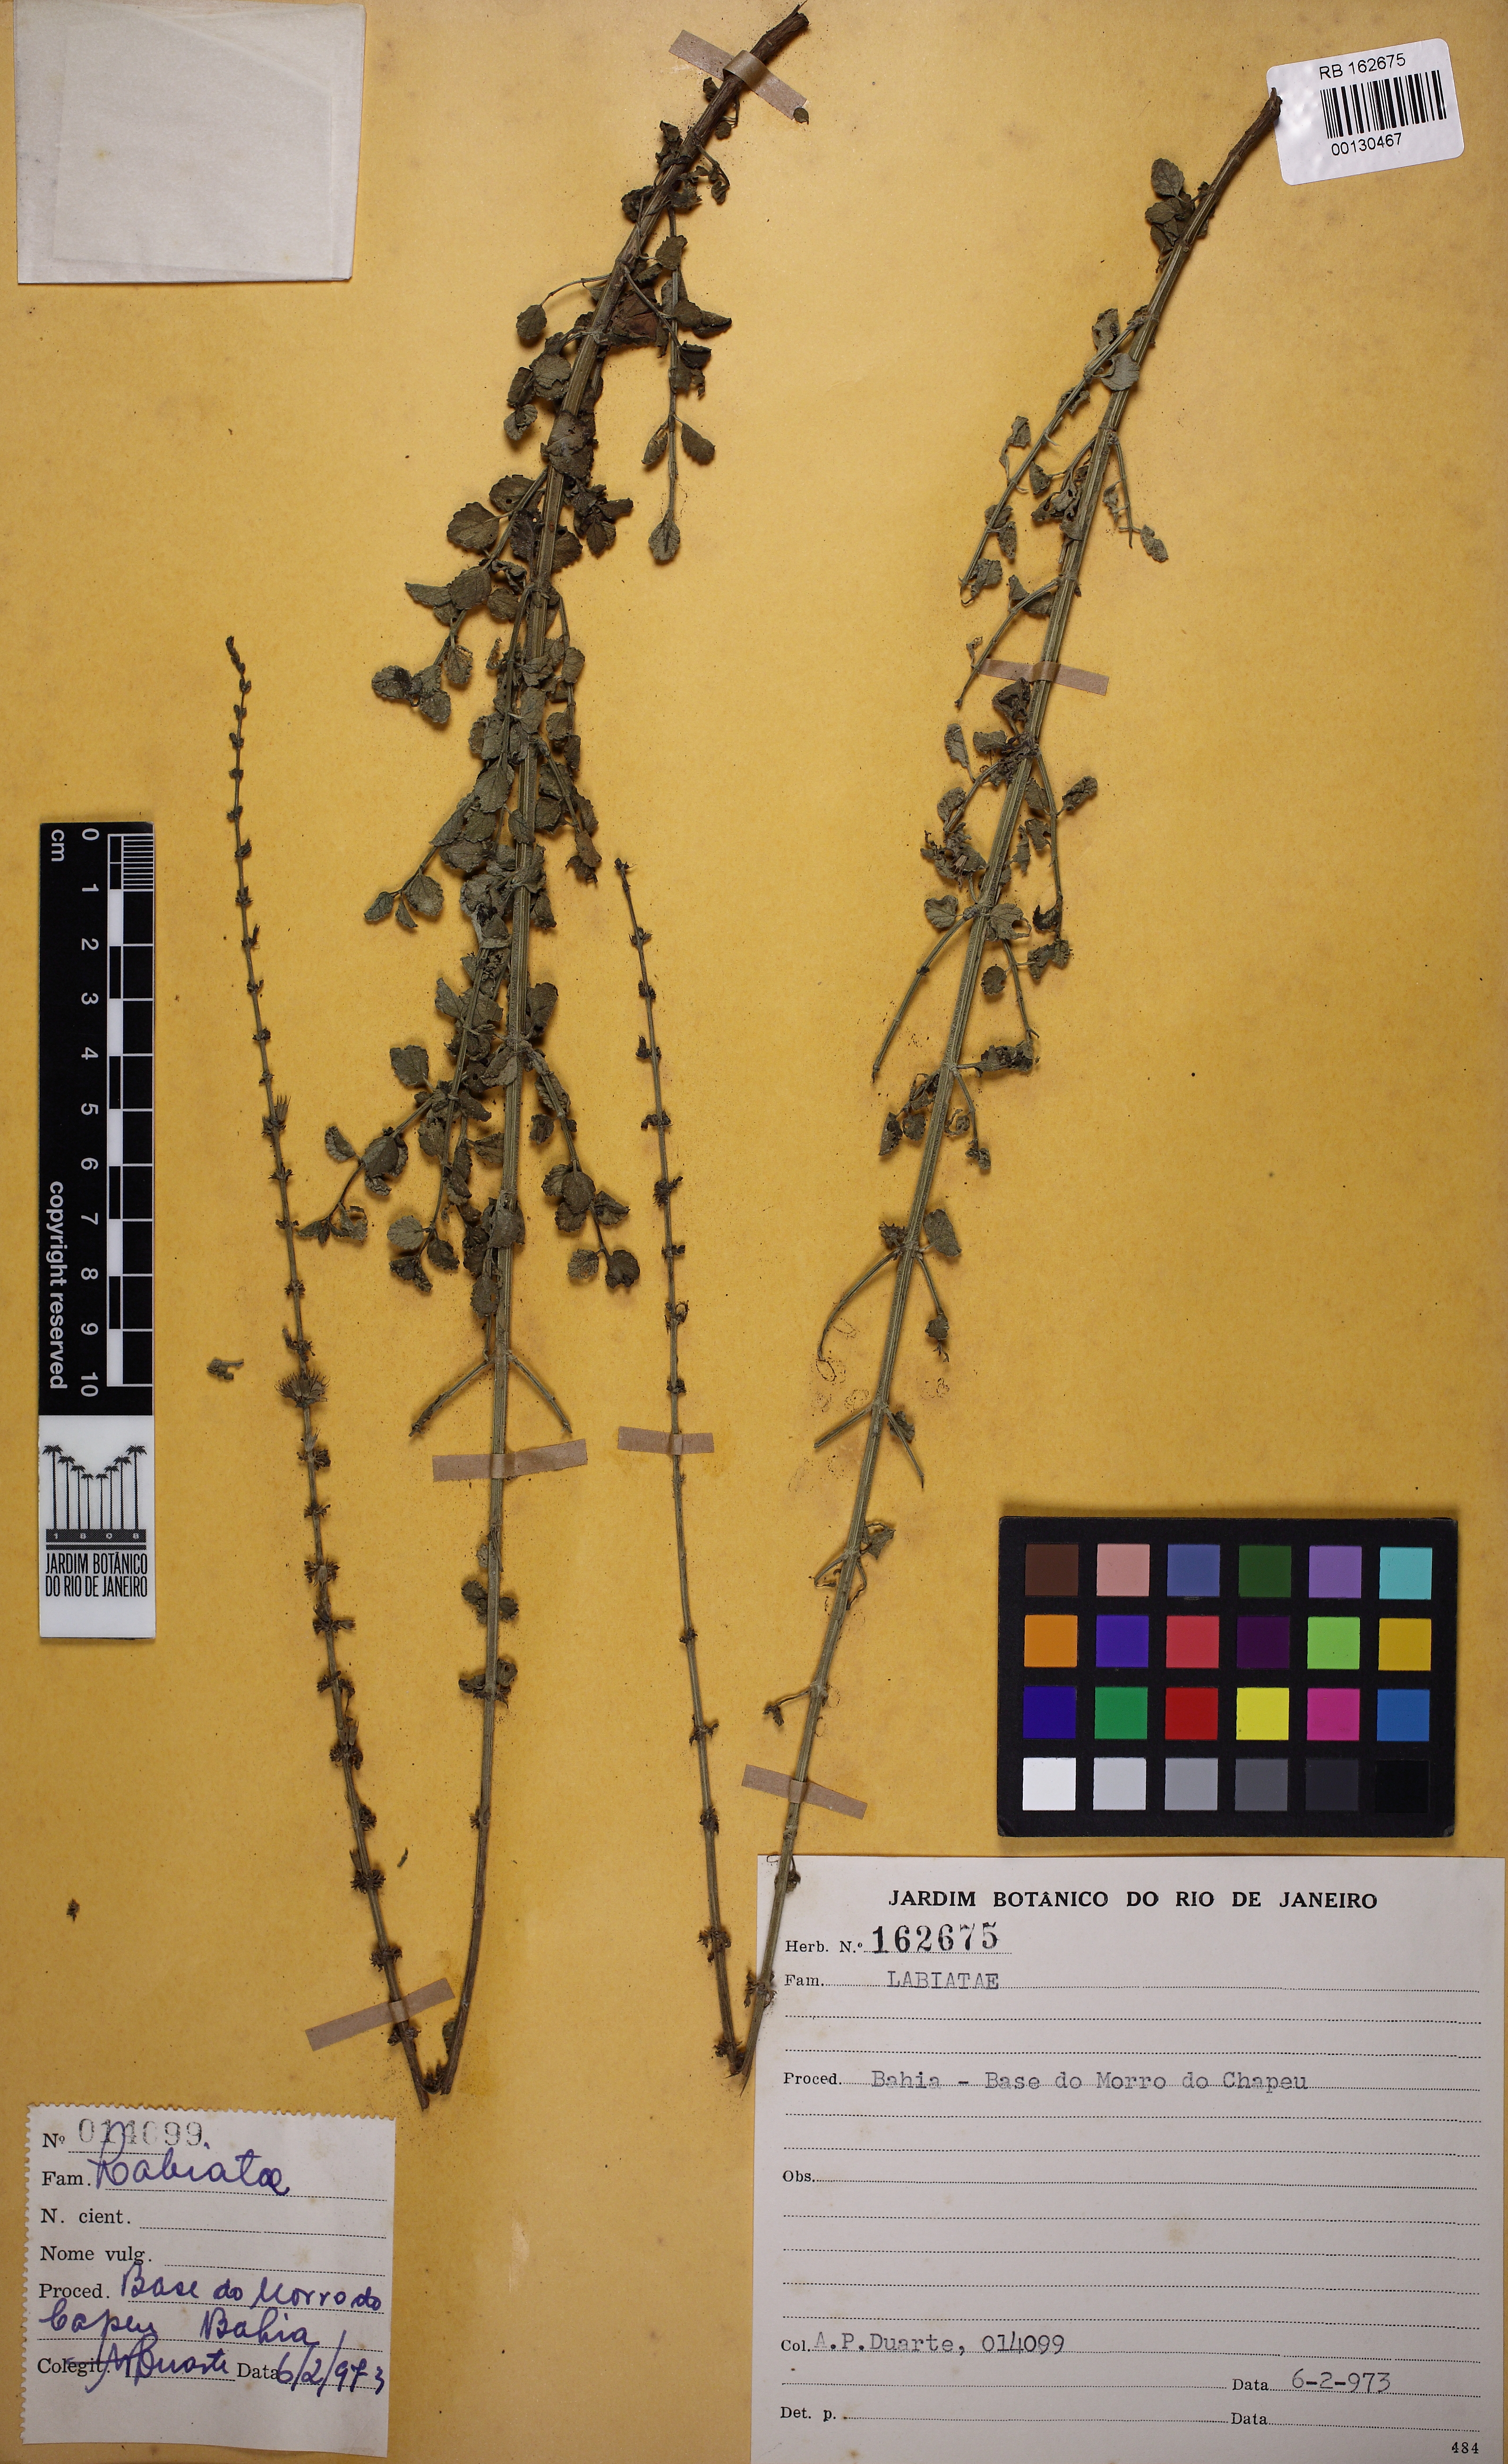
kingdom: Plantae
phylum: Tracheophyta
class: Magnoliopsida
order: Lamiales
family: Lamiaceae
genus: Leptohyptis
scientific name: Leptohyptis calida
